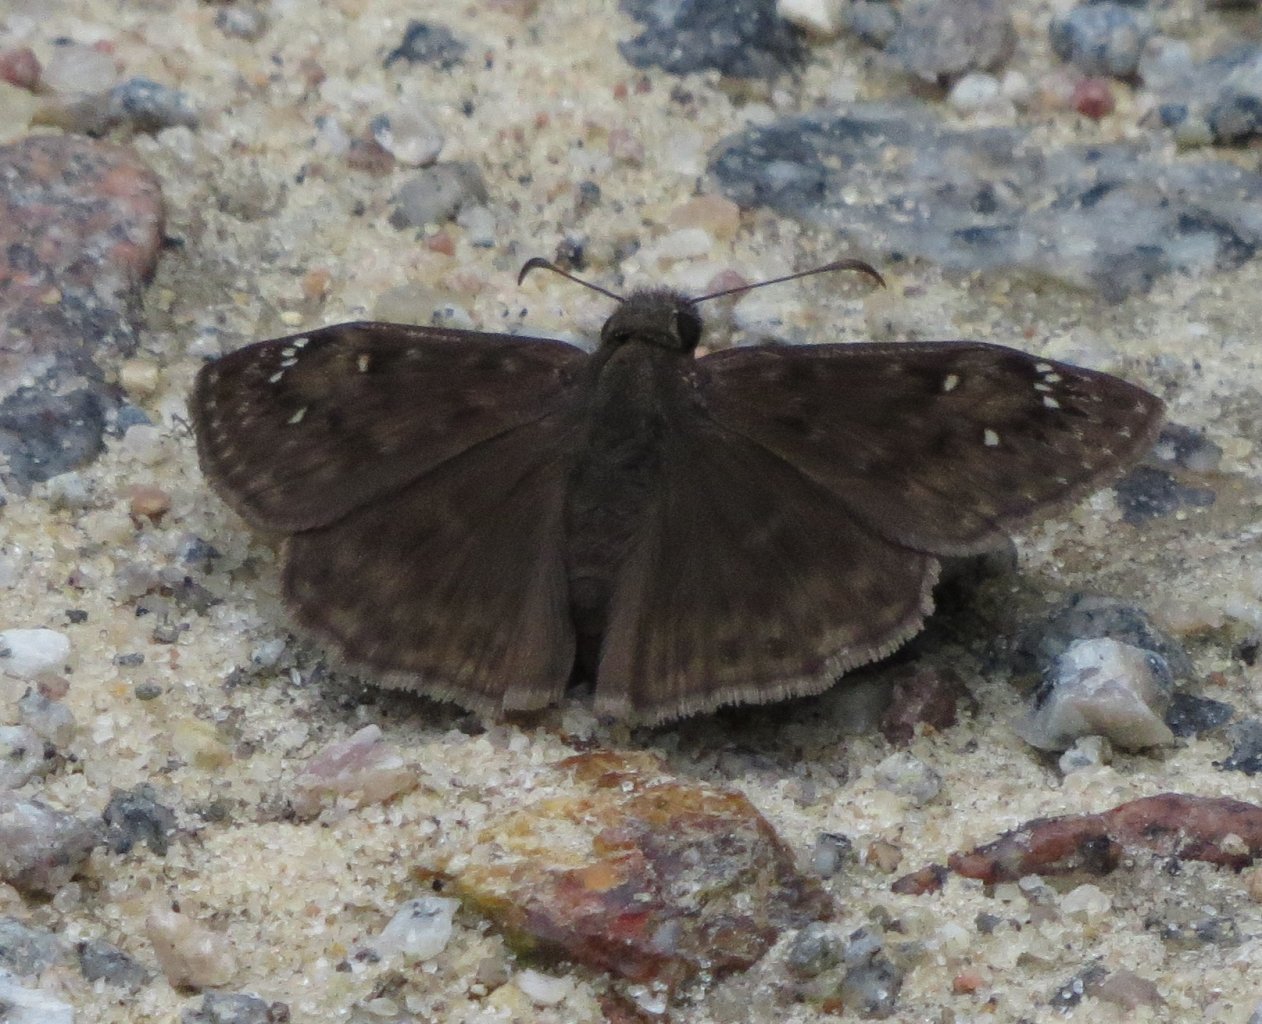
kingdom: Animalia
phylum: Arthropoda
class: Insecta
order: Lepidoptera
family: Hesperiidae
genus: Gesta
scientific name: Gesta
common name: Horace's Duskywing
